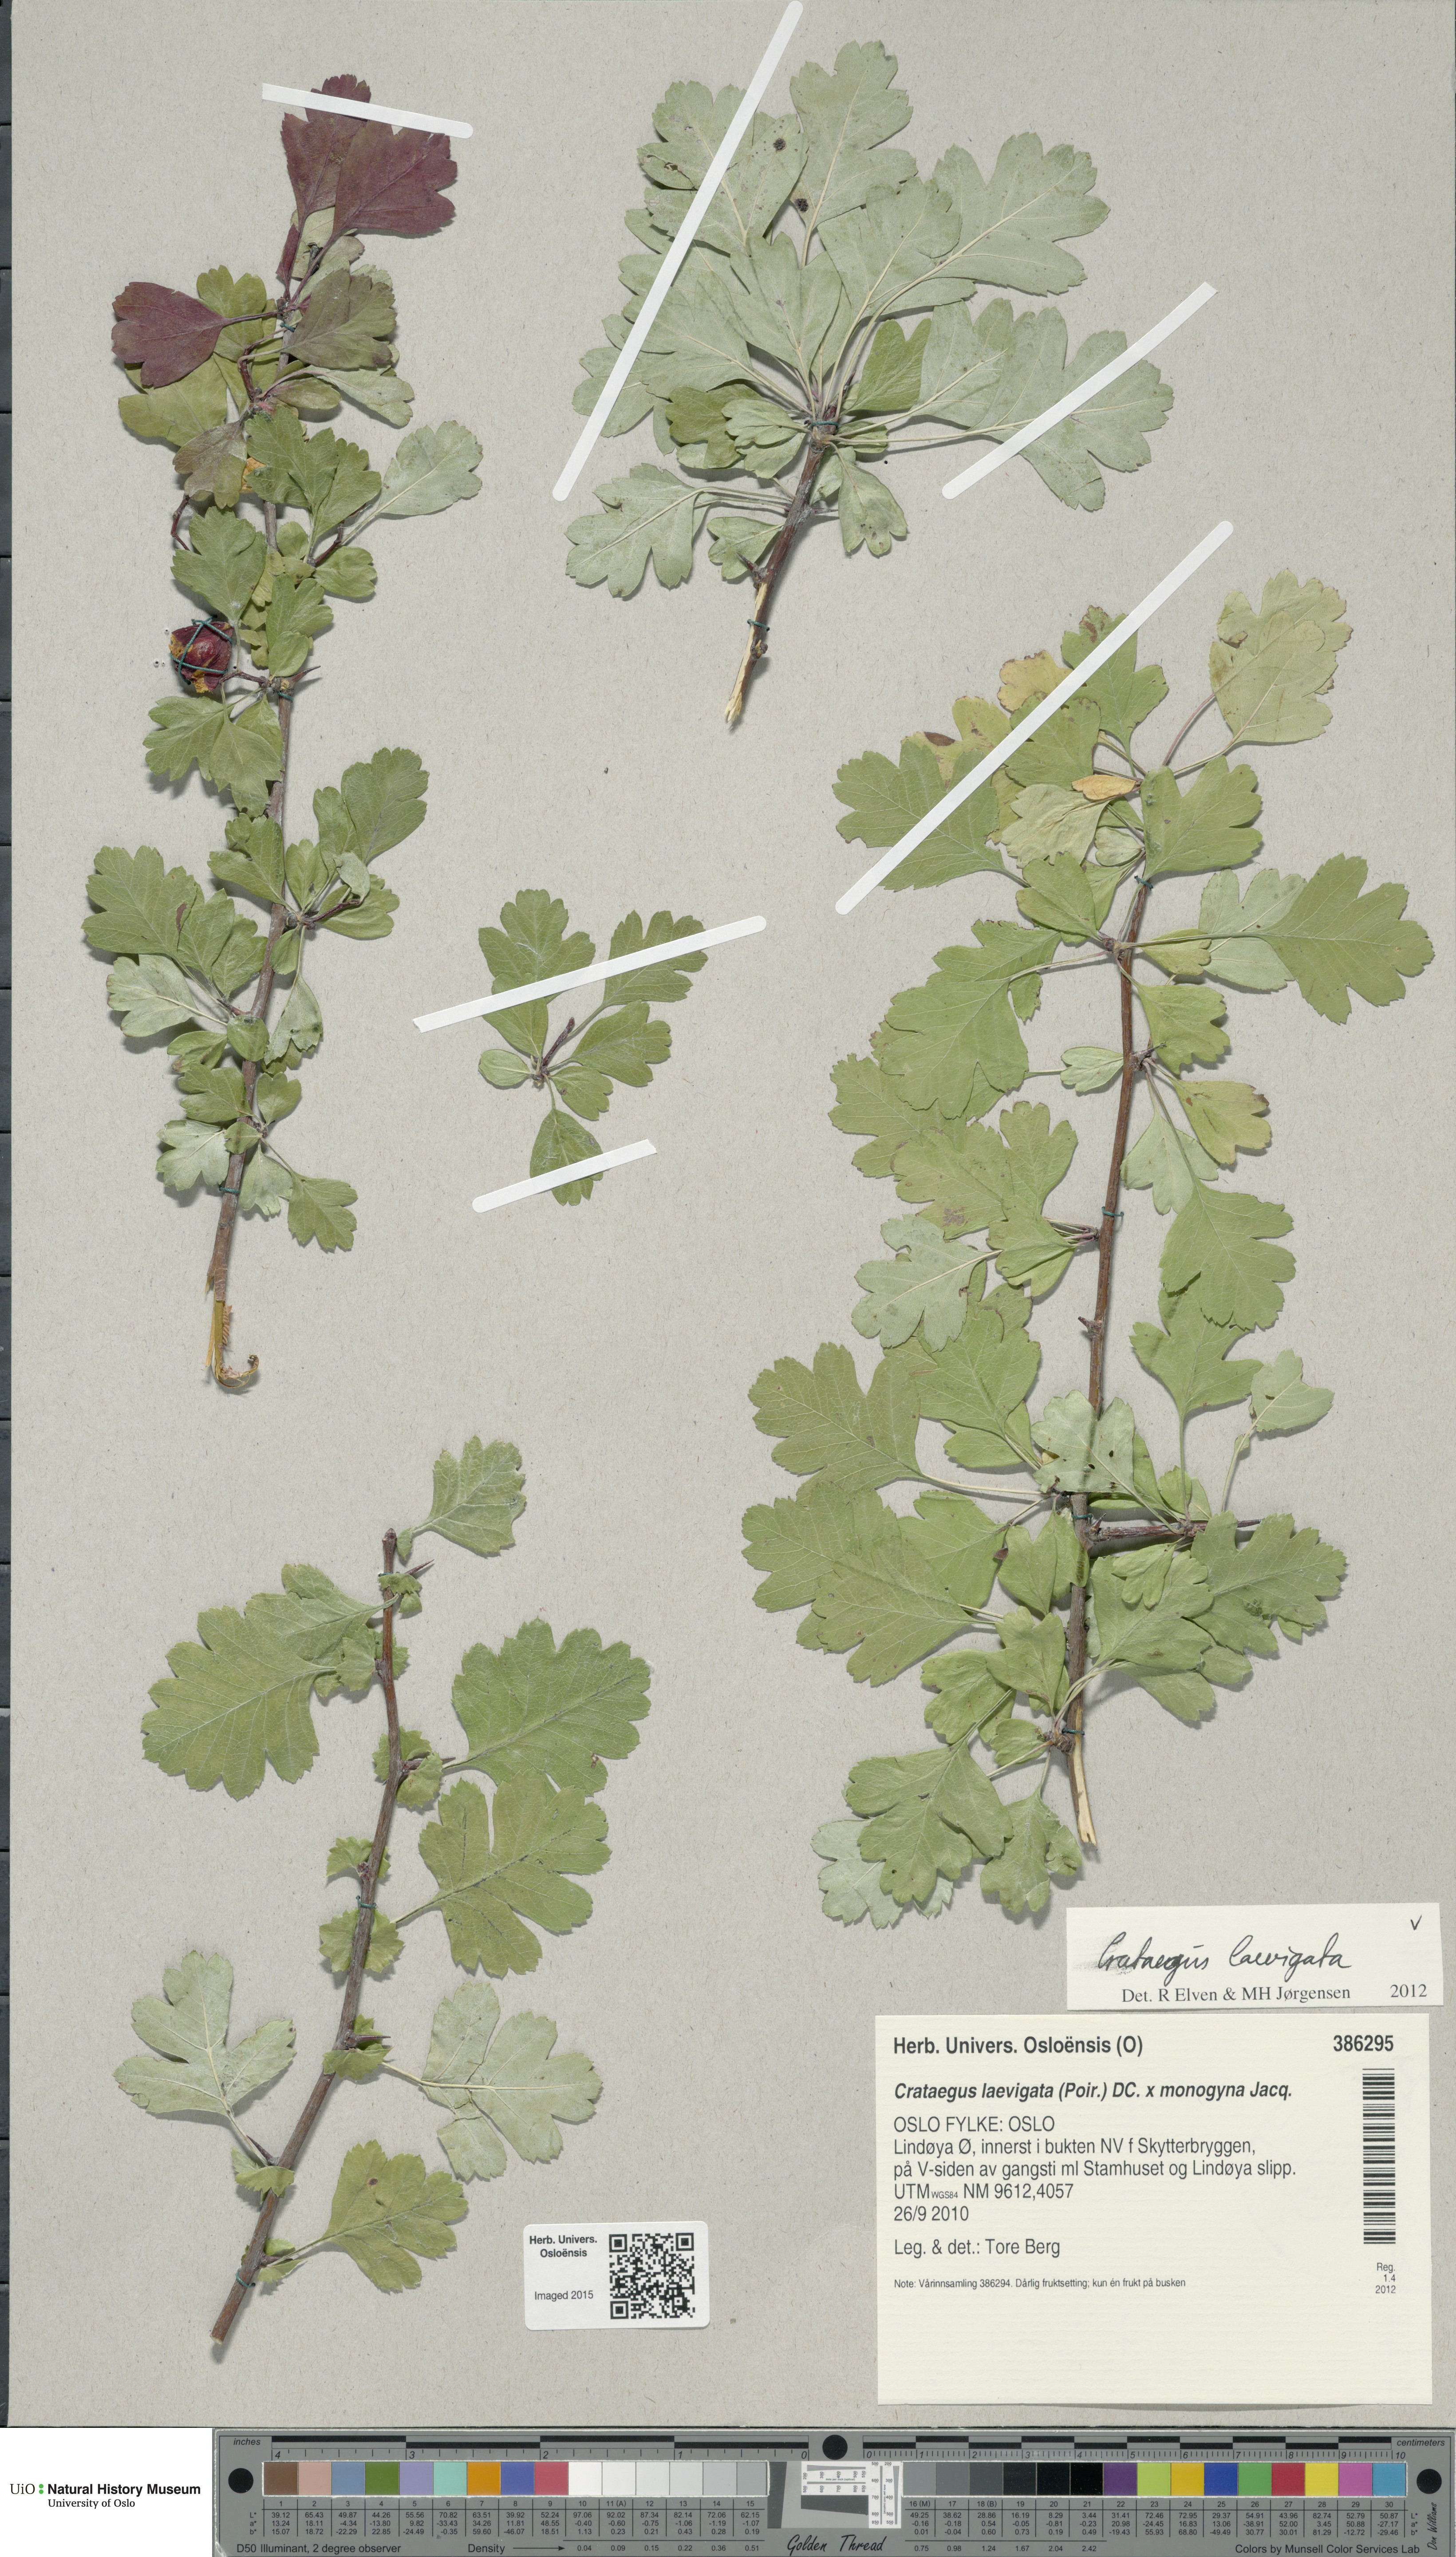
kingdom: Plantae
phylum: Tracheophyta
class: Magnoliopsida
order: Rosales
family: Rosaceae
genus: Crataegus
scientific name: Crataegus laevigata
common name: Midland hawthorn
